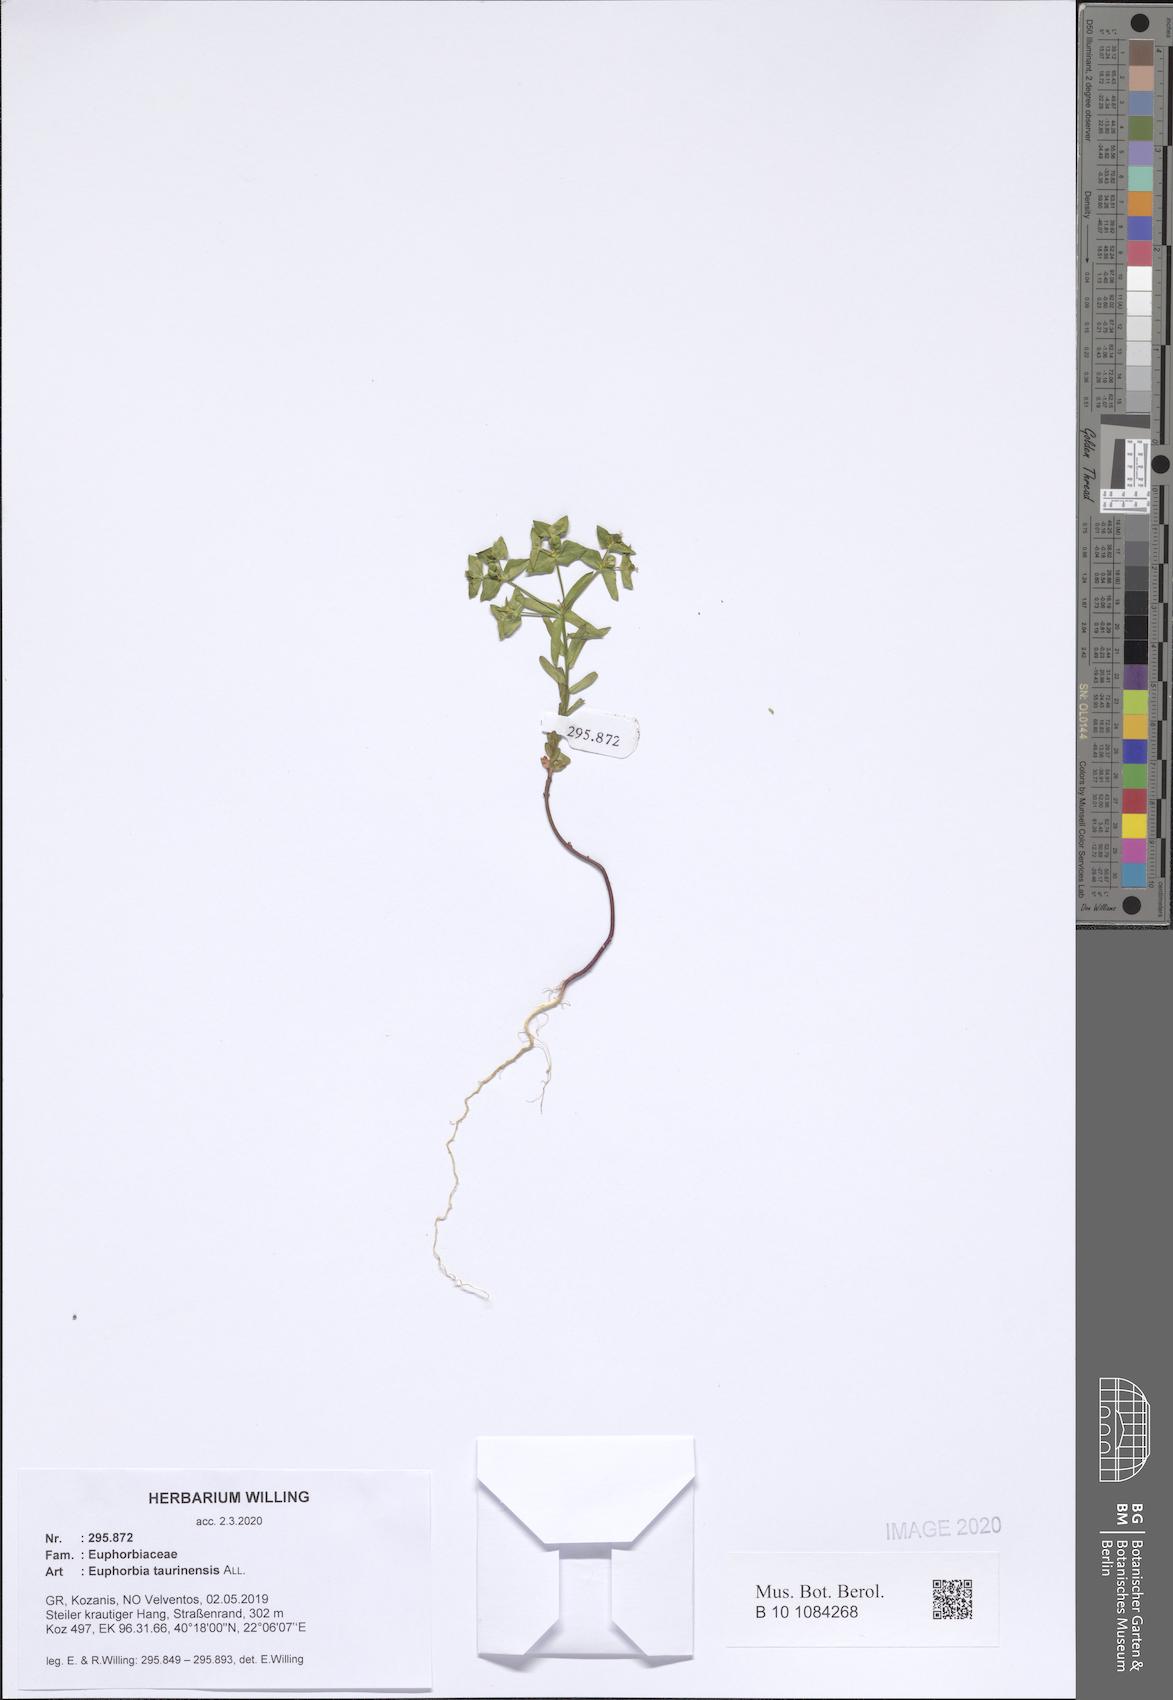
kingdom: Plantae
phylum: Tracheophyta
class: Magnoliopsida
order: Malpighiales
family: Euphorbiaceae
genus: Euphorbia
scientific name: Euphorbia taurinensis
